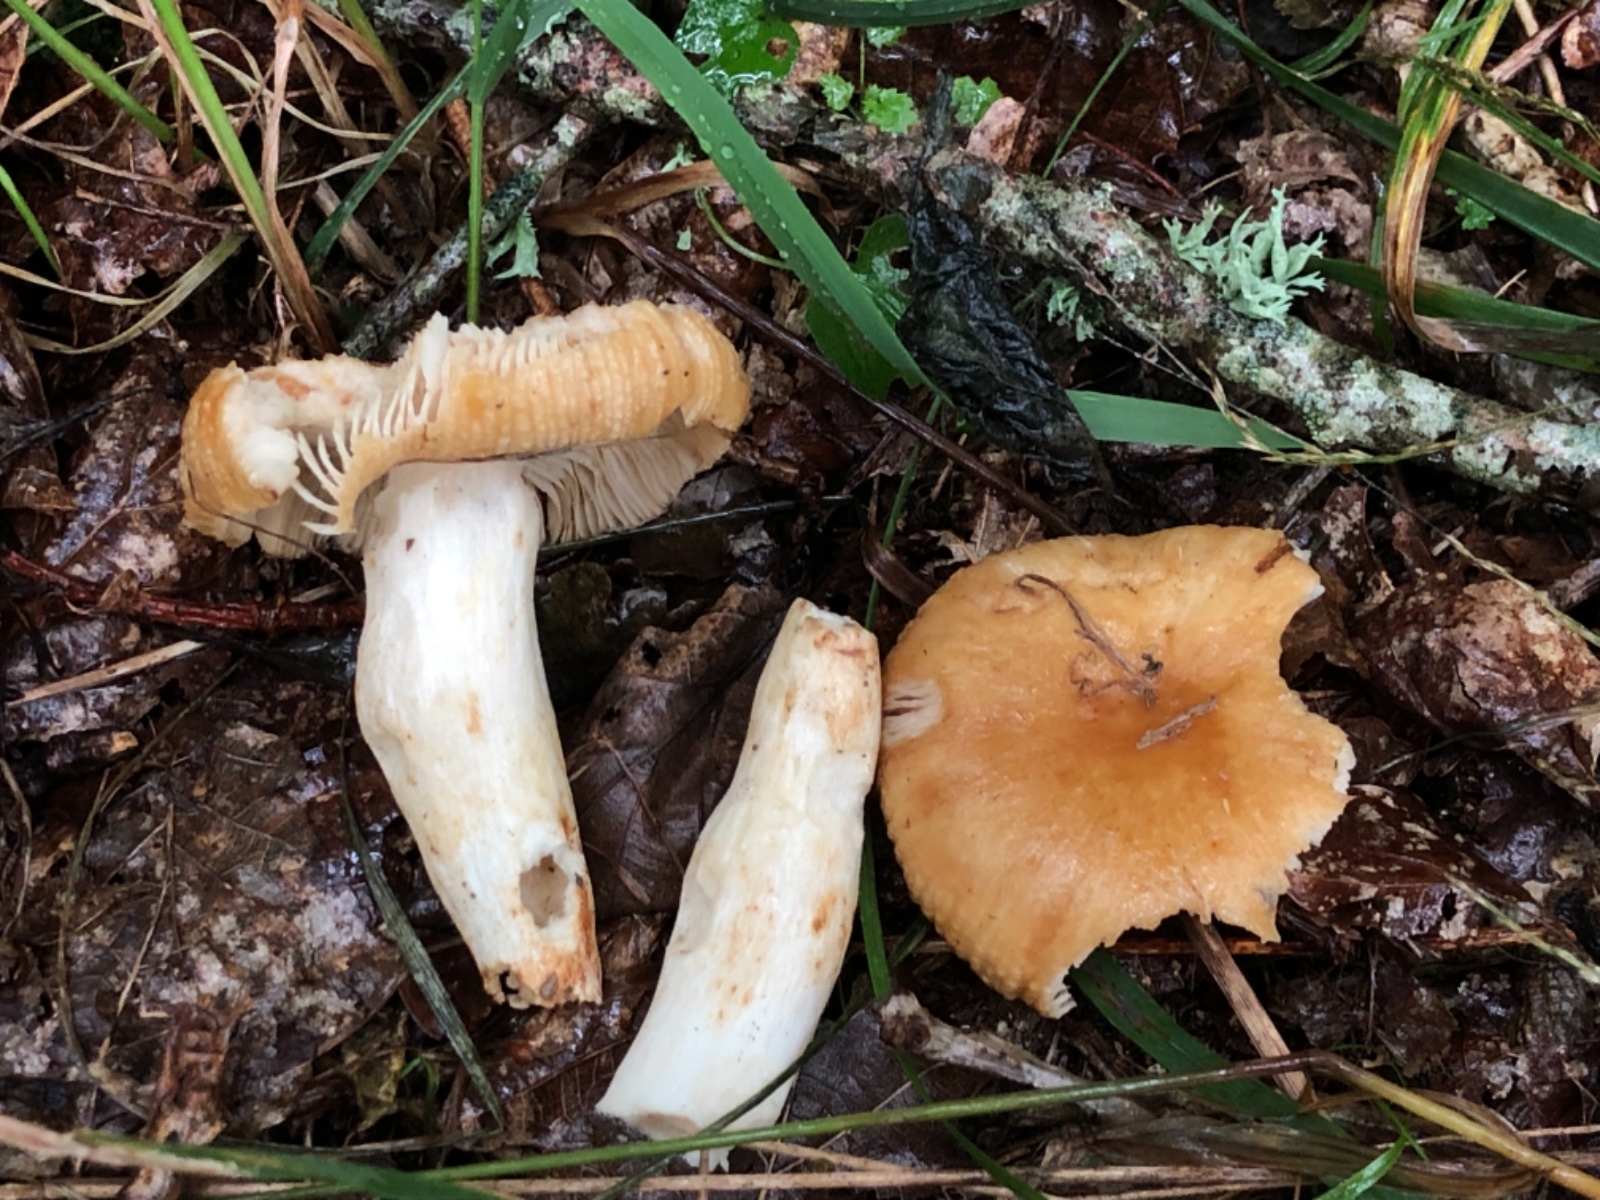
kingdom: Fungi
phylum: Basidiomycota
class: Agaricomycetes
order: Russulales
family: Russulaceae
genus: Russula
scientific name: Russula
